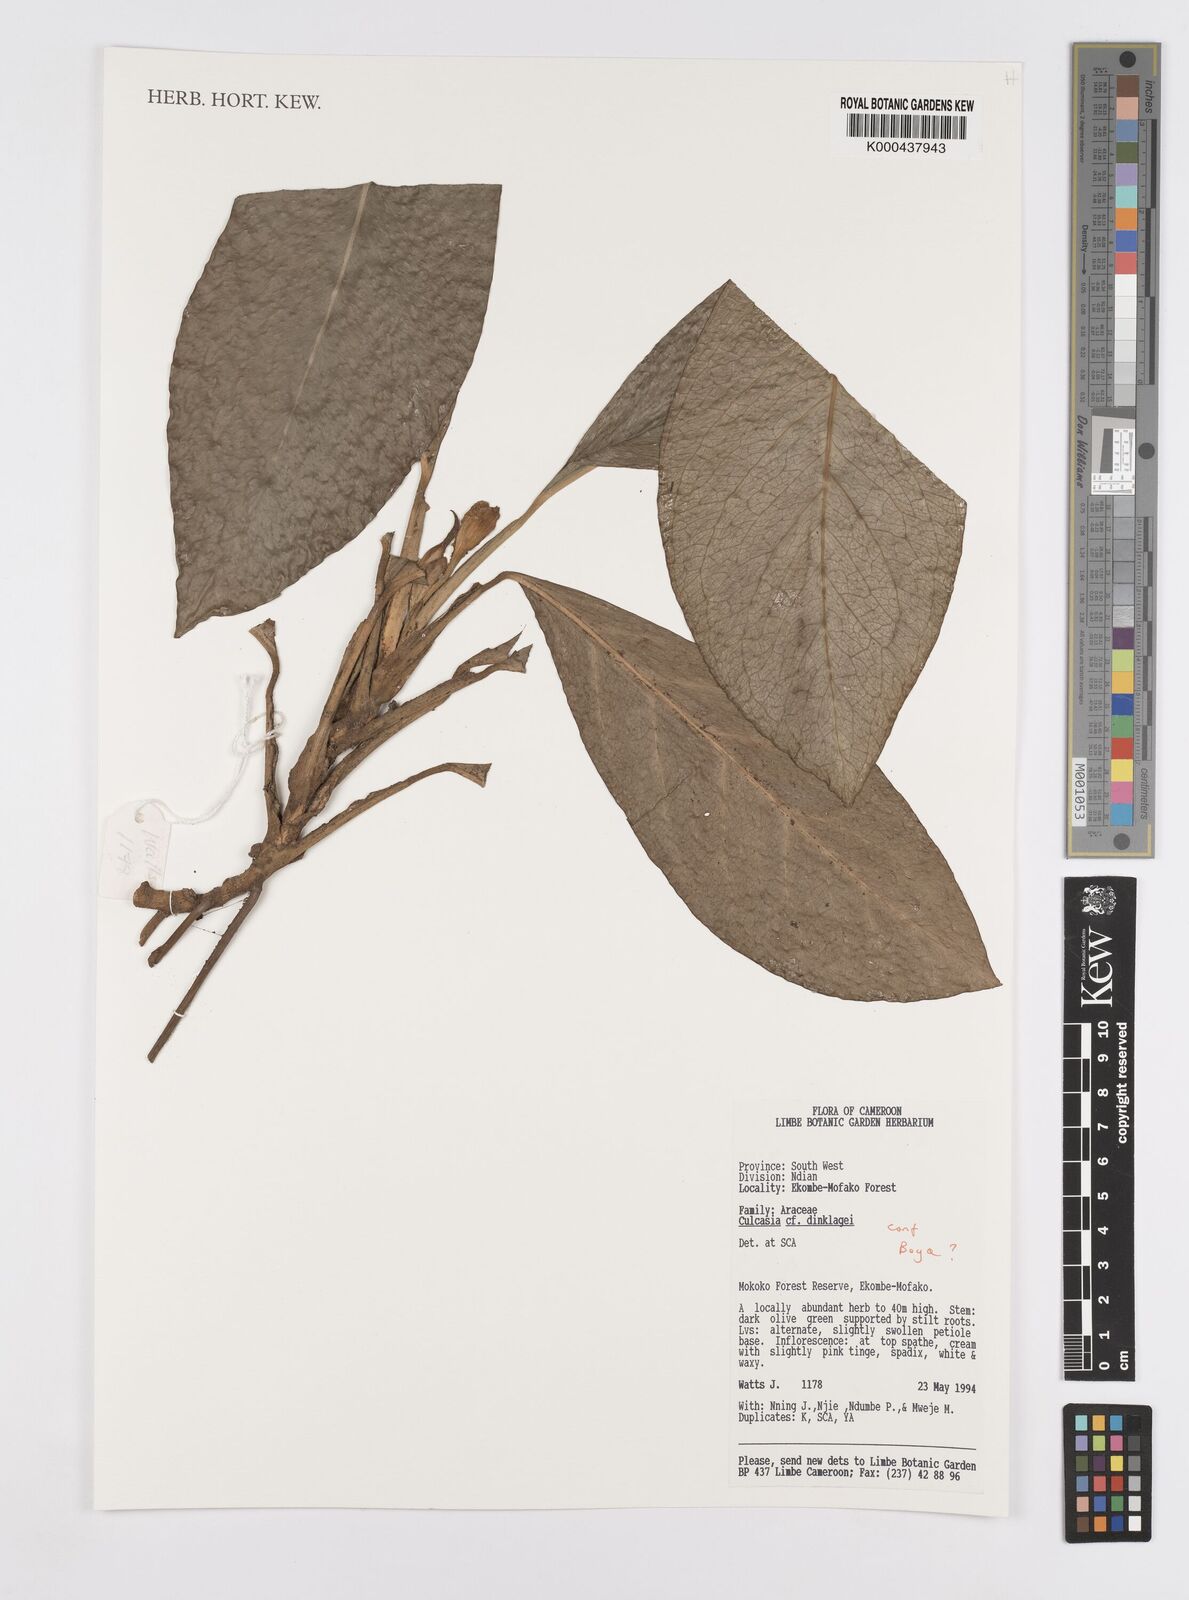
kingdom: Plantae
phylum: Tracheophyta
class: Liliopsida
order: Alismatales
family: Araceae
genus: Culcasia
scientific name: Culcasia dinklagei
